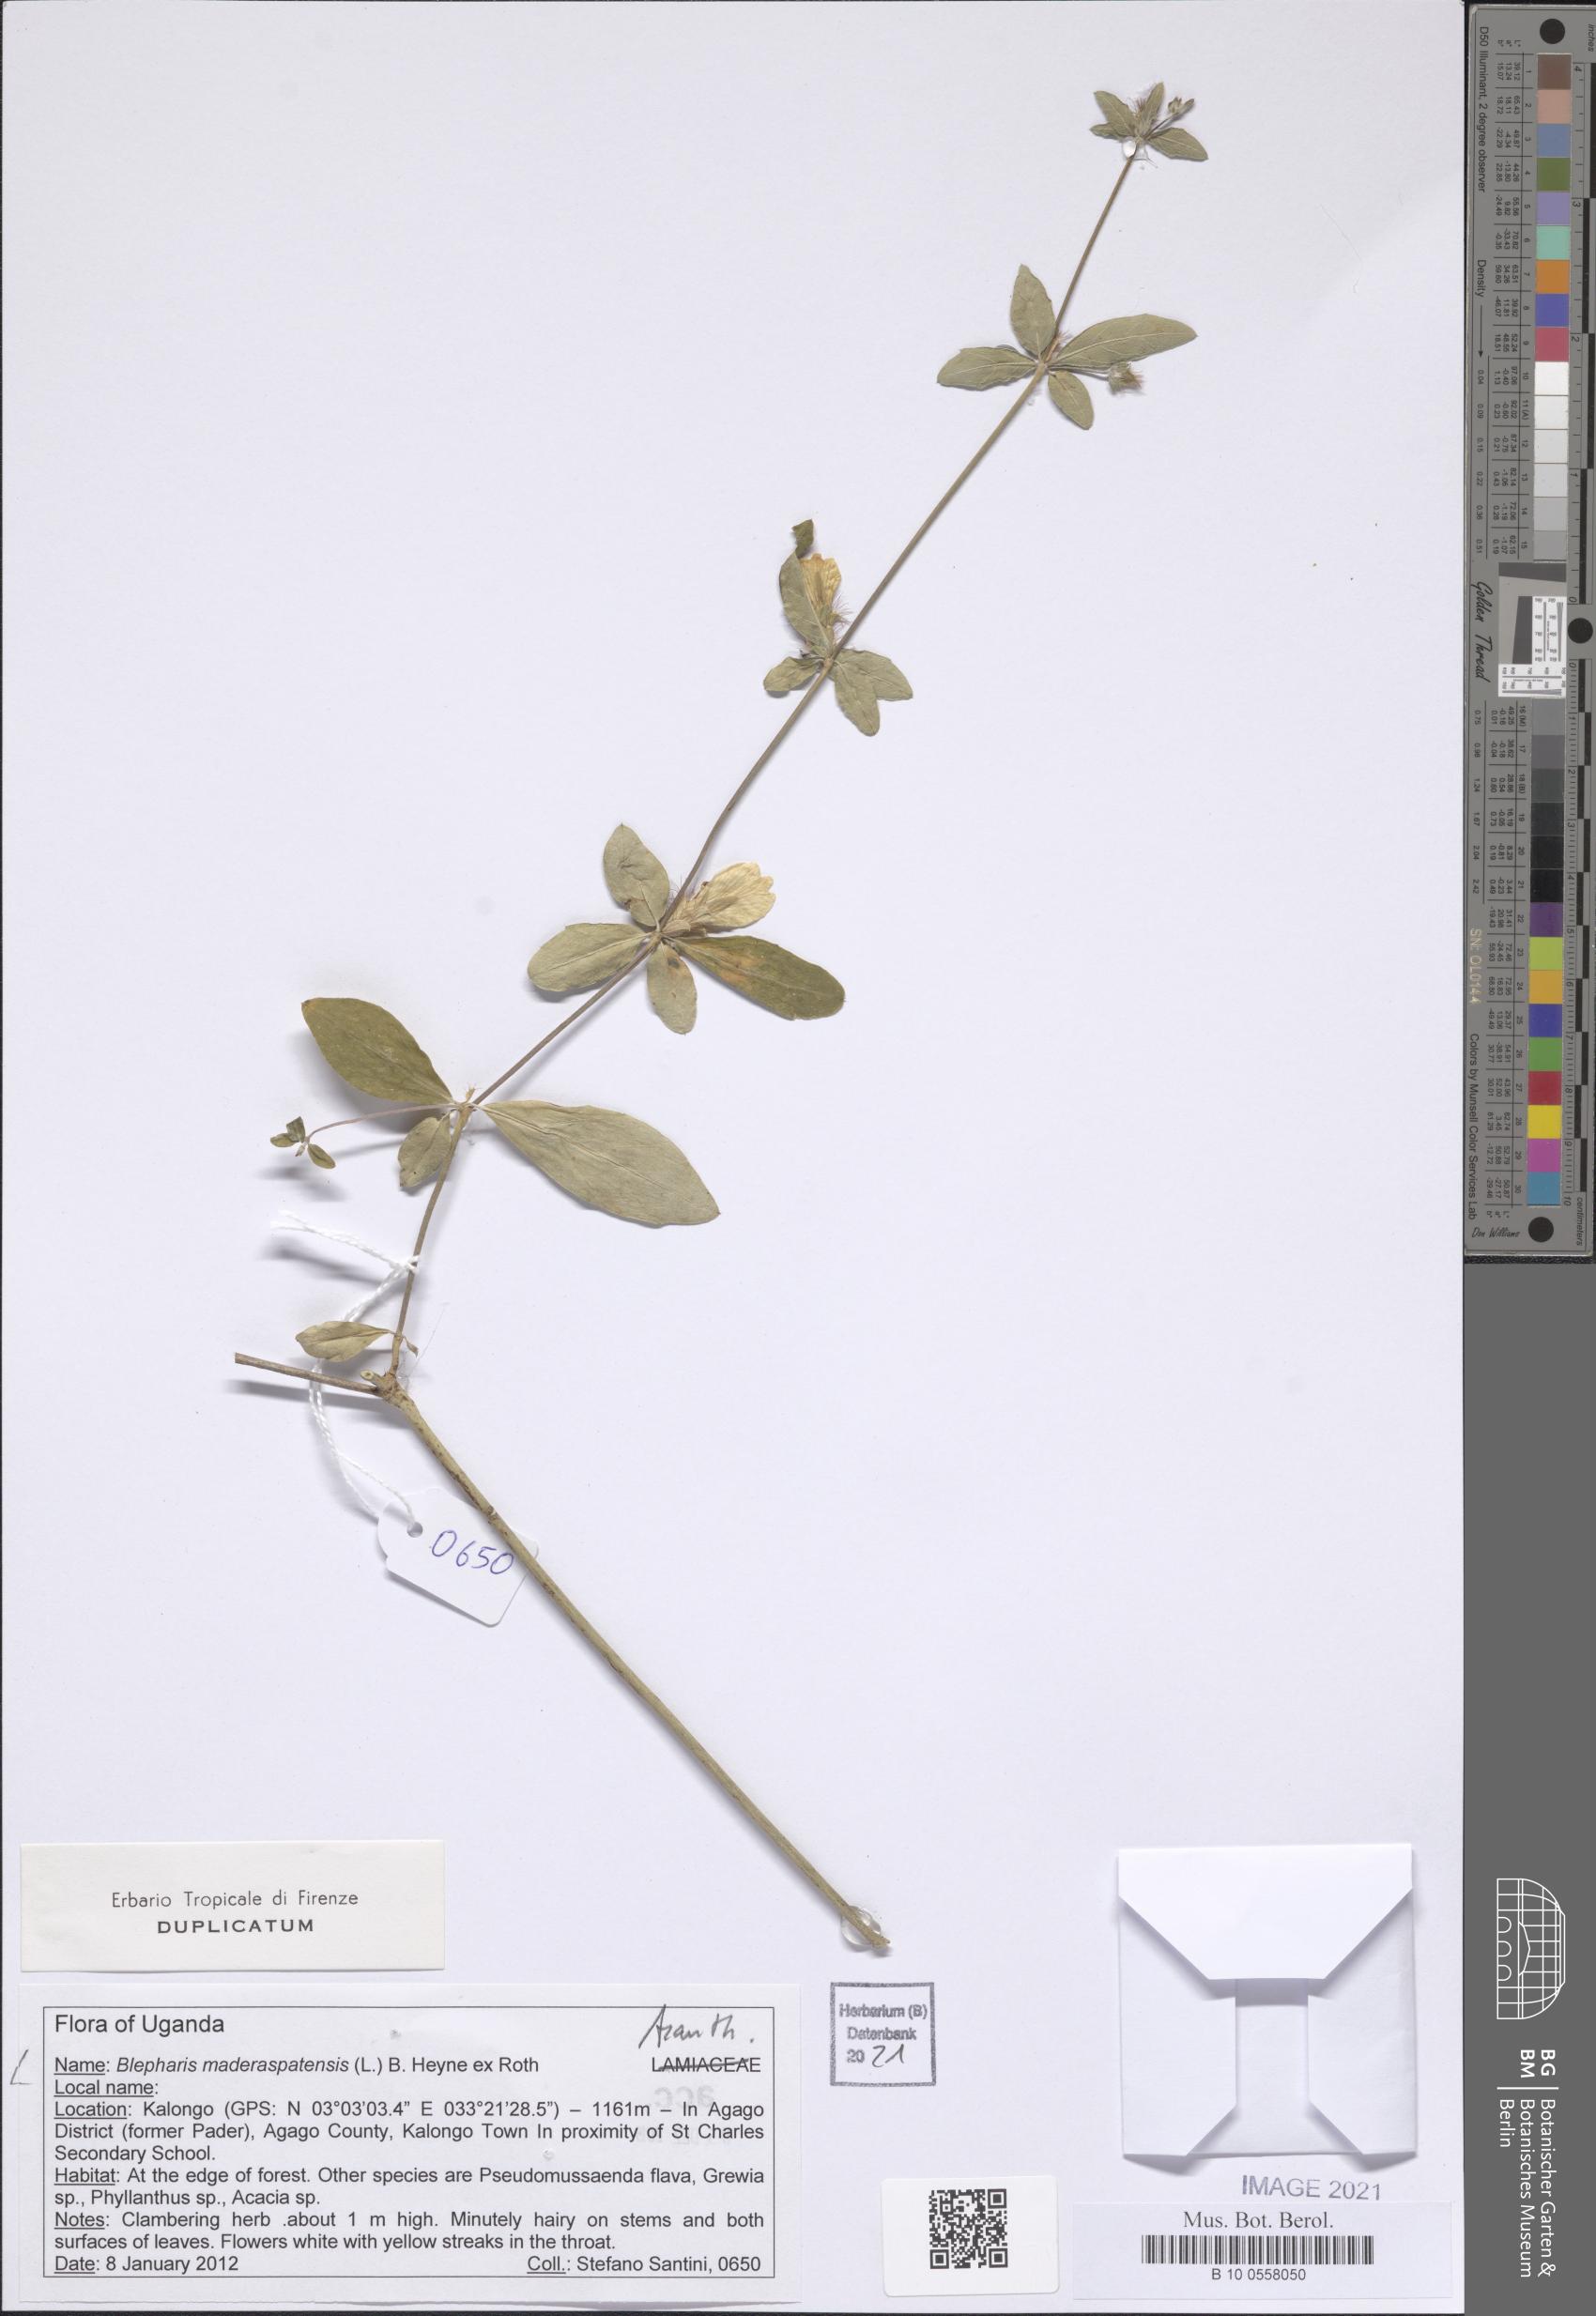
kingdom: Plantae
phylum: Tracheophyta
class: Magnoliopsida
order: Lamiales
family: Acanthaceae
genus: Blepharis
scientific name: Blepharis maderaspatensis
